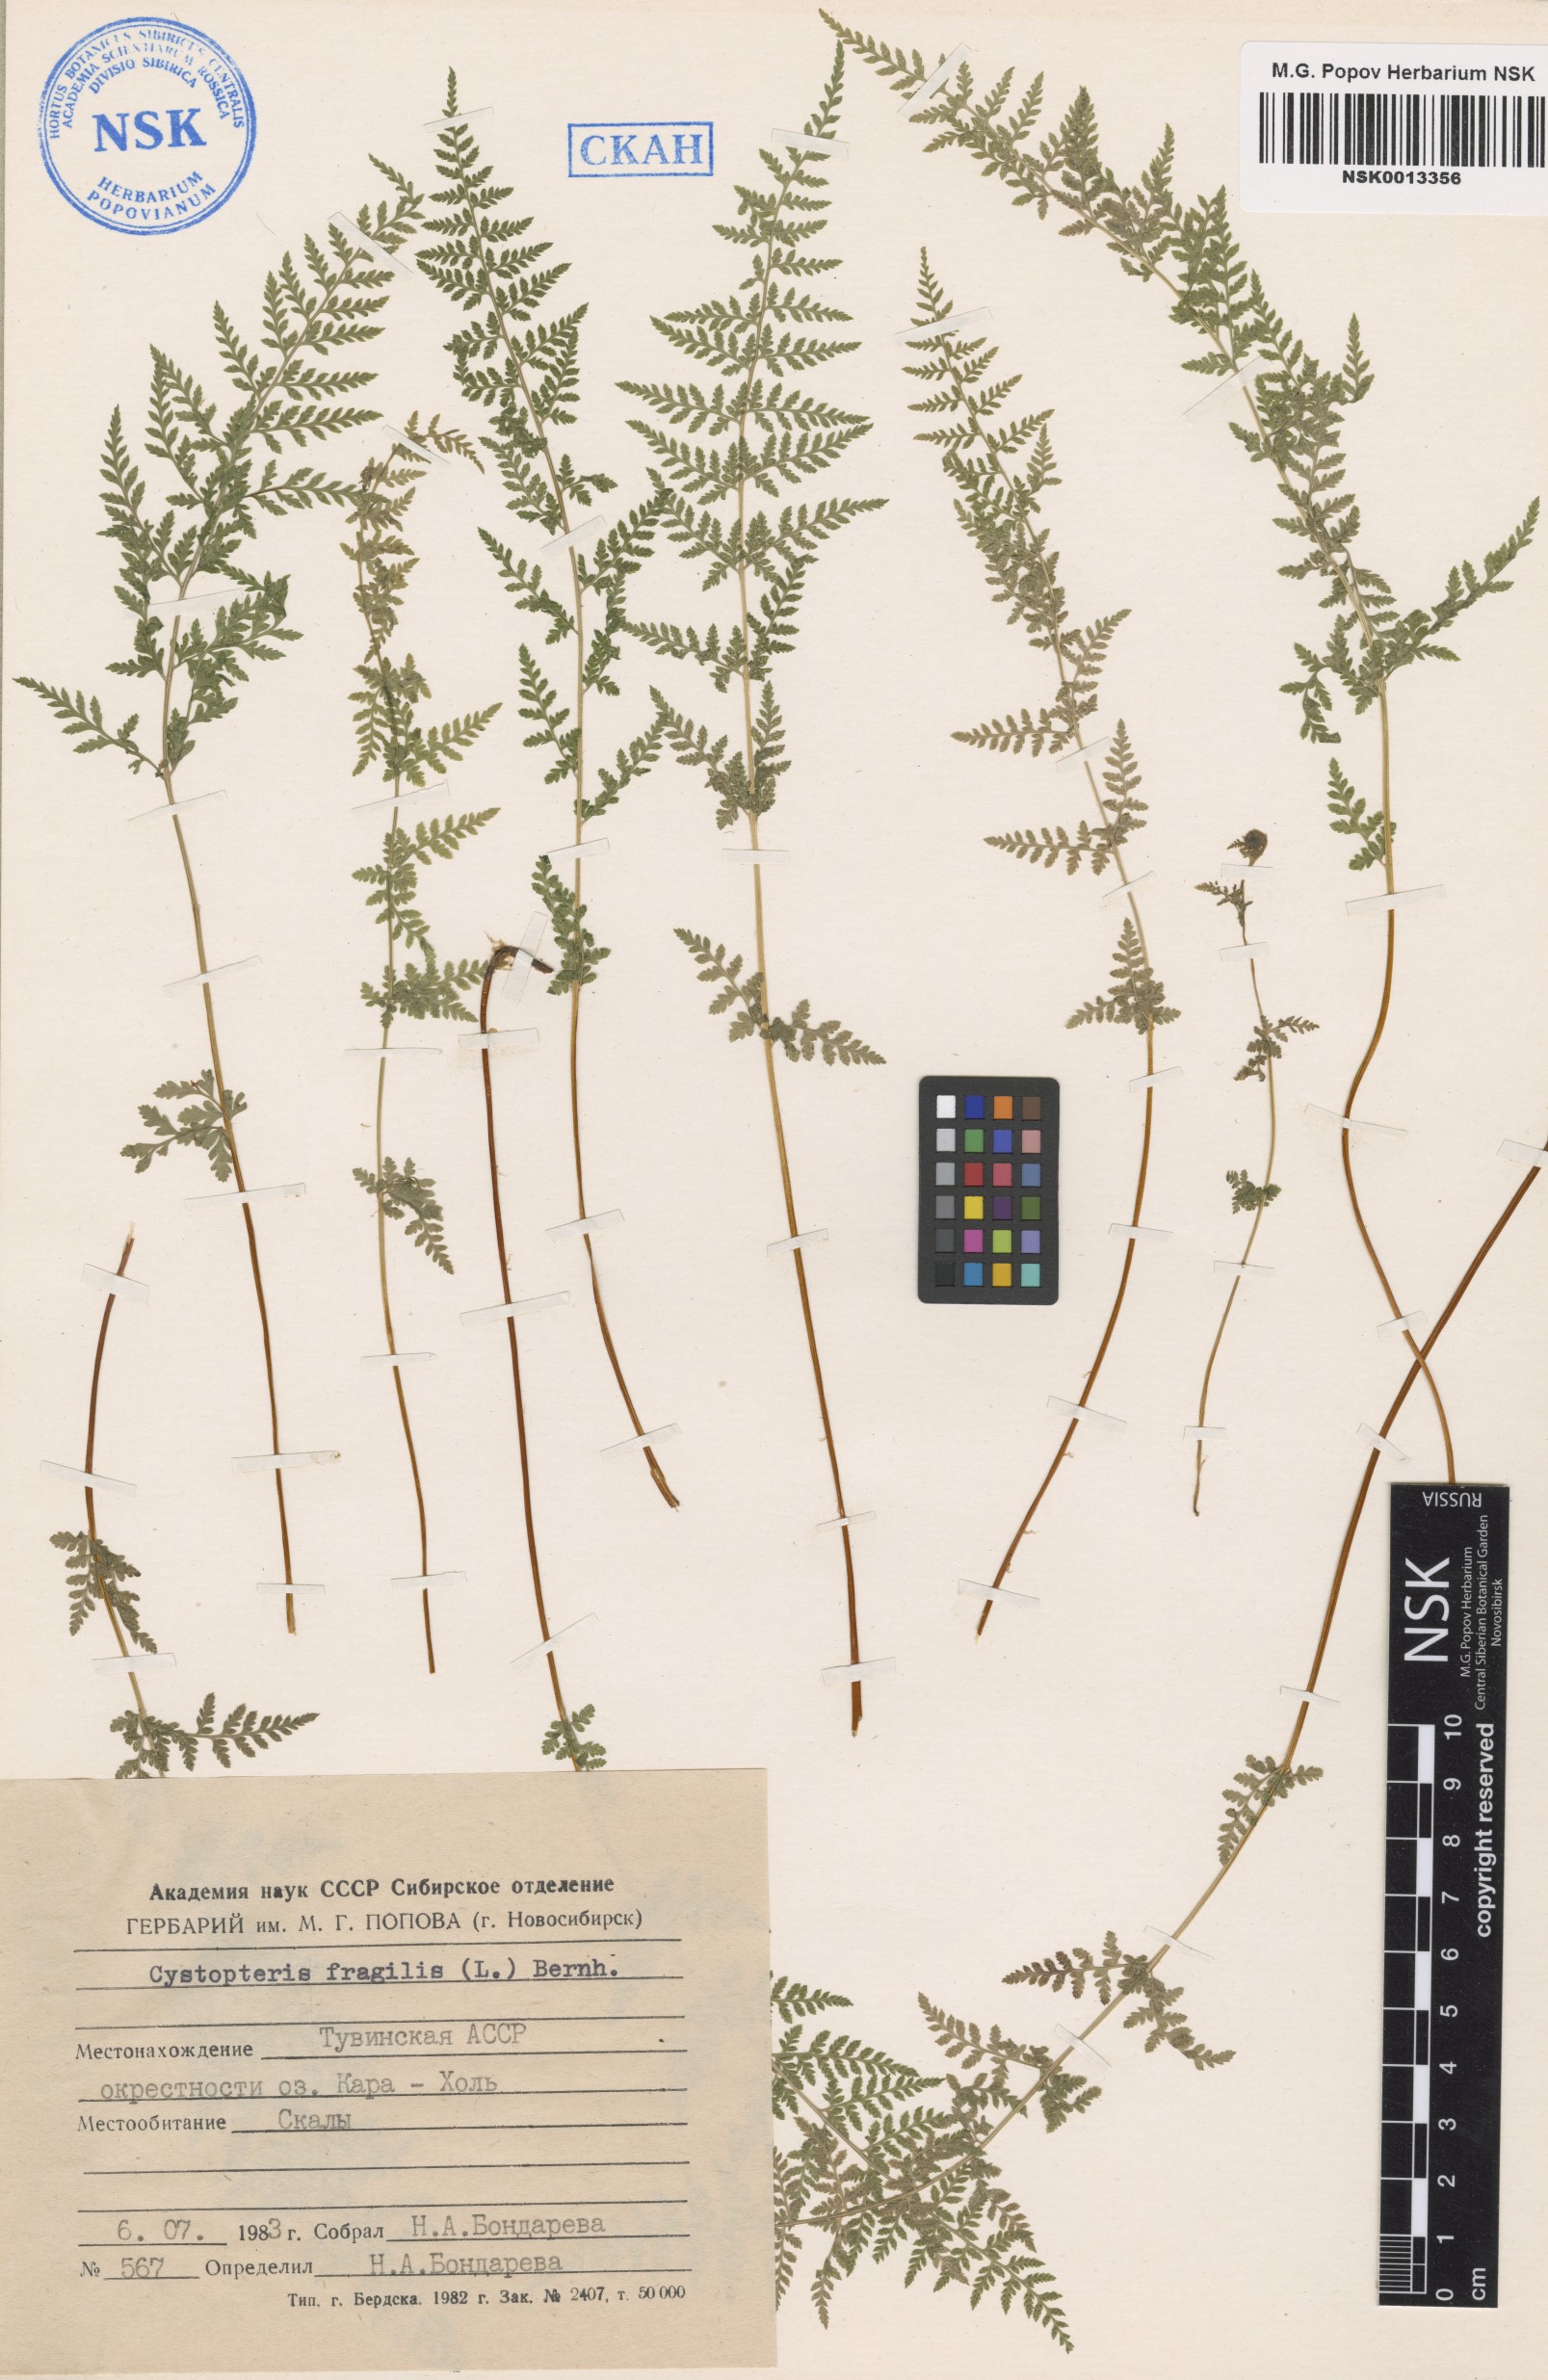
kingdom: Plantae
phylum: Tracheophyta
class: Polypodiopsida
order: Polypodiales
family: Cystopteridaceae
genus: Cystopteris
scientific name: Cystopteris fragilis
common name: Brittle bladder fern
